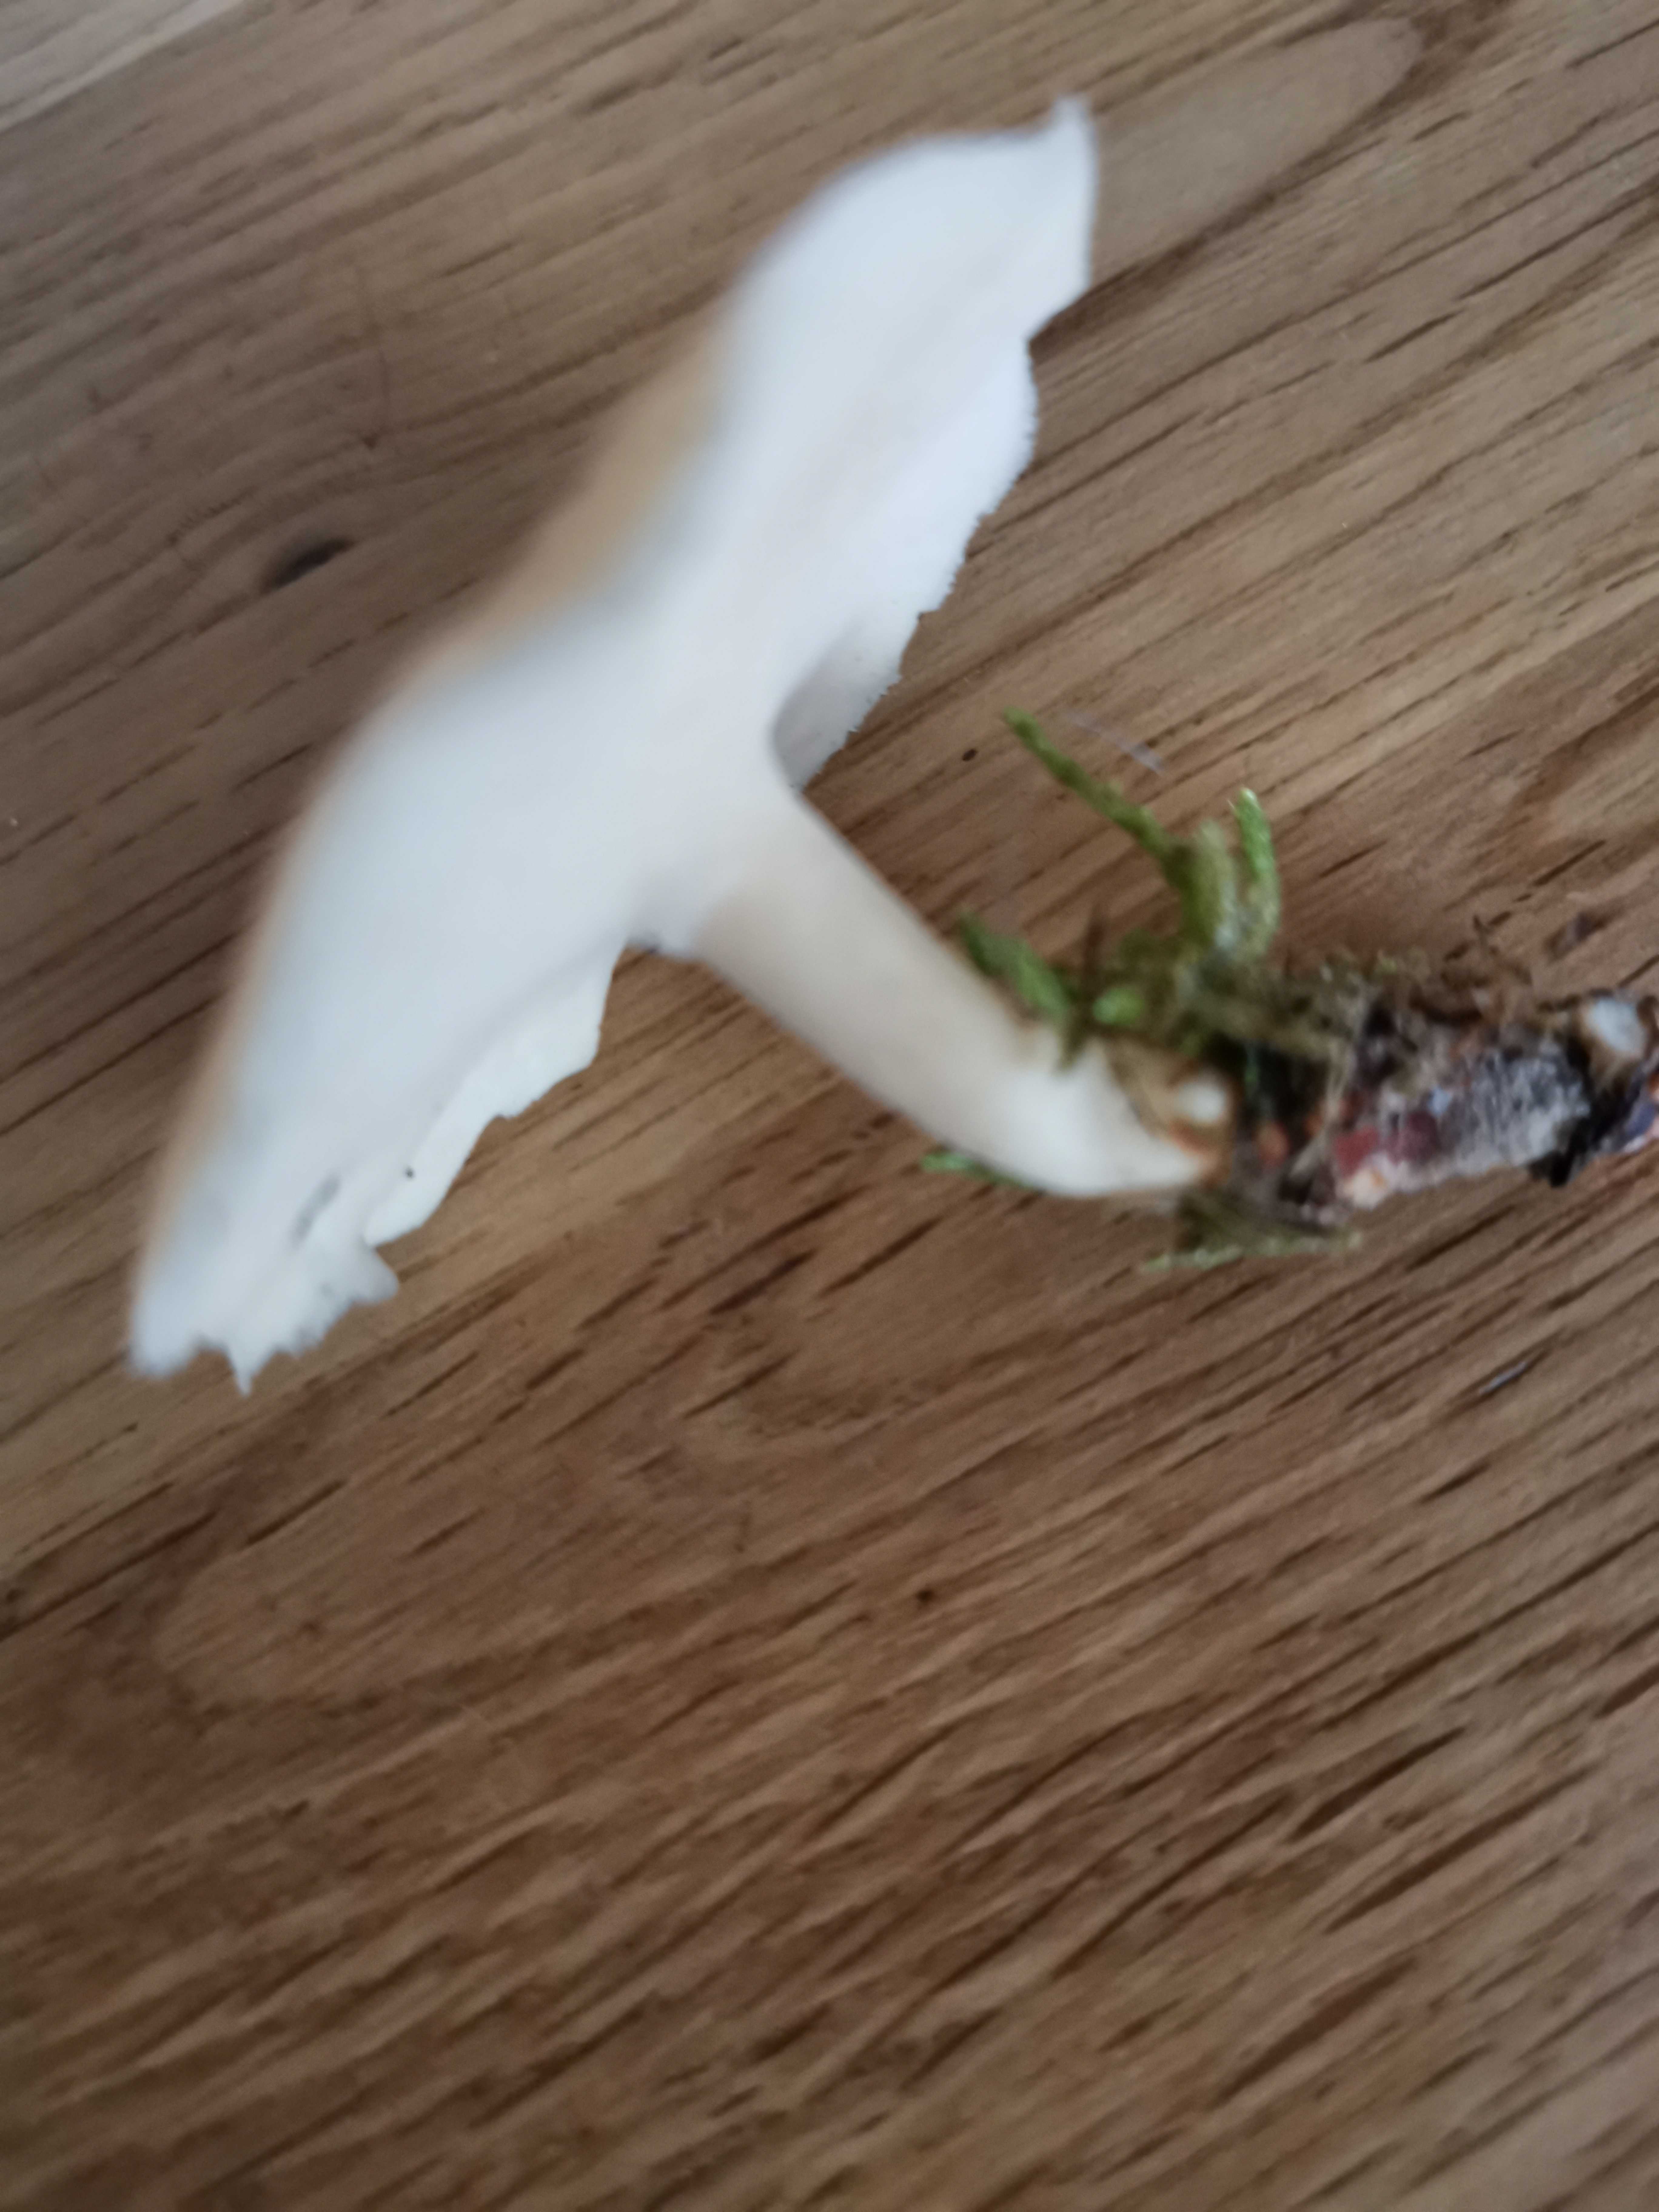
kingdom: Fungi
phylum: Basidiomycota
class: Agaricomycetes
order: Polyporales
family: Polyporaceae
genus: Lentinus
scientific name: Lentinus brumalis
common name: vinter-stilkporesvamp
